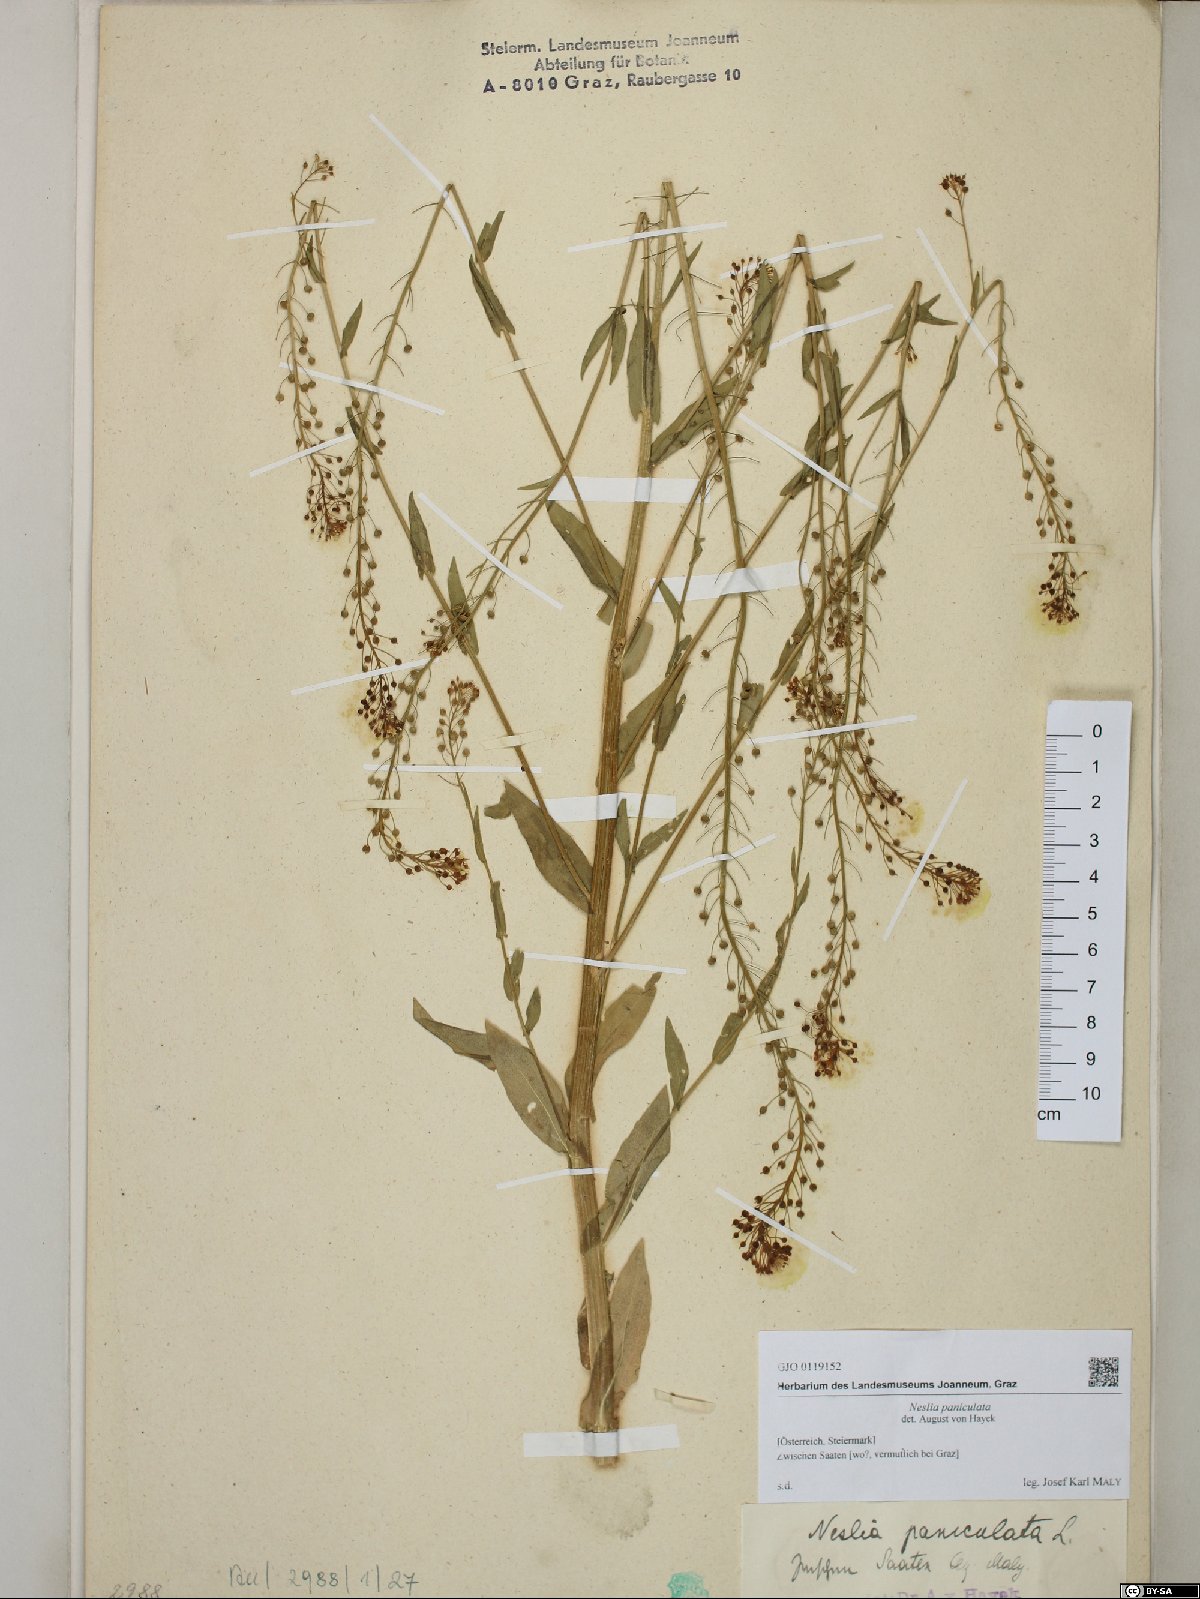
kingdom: Plantae
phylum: Tracheophyta
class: Magnoliopsida
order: Brassicales
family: Brassicaceae
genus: Neslia
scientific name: Neslia paniculata
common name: Ball mustard
